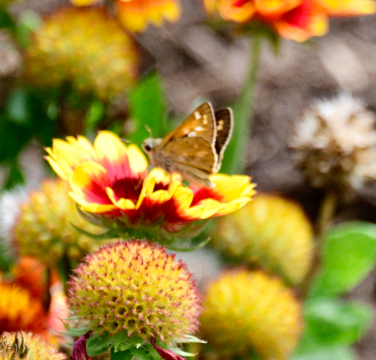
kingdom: Animalia
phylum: Arthropoda
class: Insecta
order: Lepidoptera
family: Hesperiidae
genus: Atalopedes
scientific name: Atalopedes campestris
